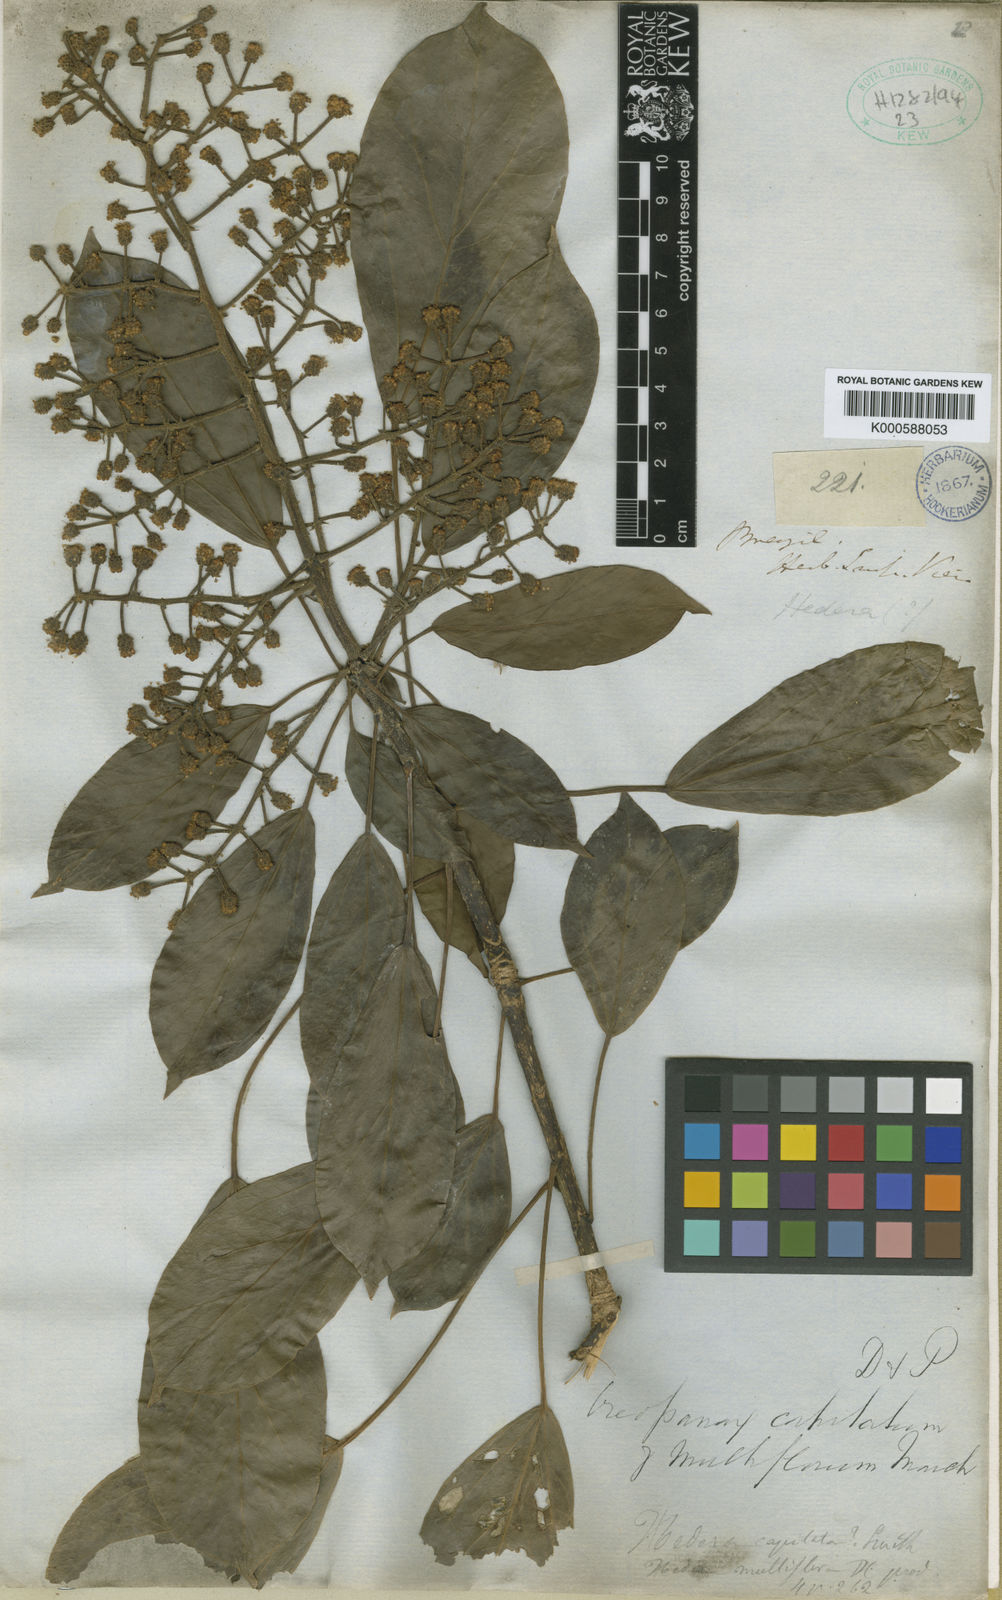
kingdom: Plantae
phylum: Tracheophyta
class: Magnoliopsida
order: Apiales
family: Araliaceae
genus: Oreopanax
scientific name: Oreopanax capitatus
